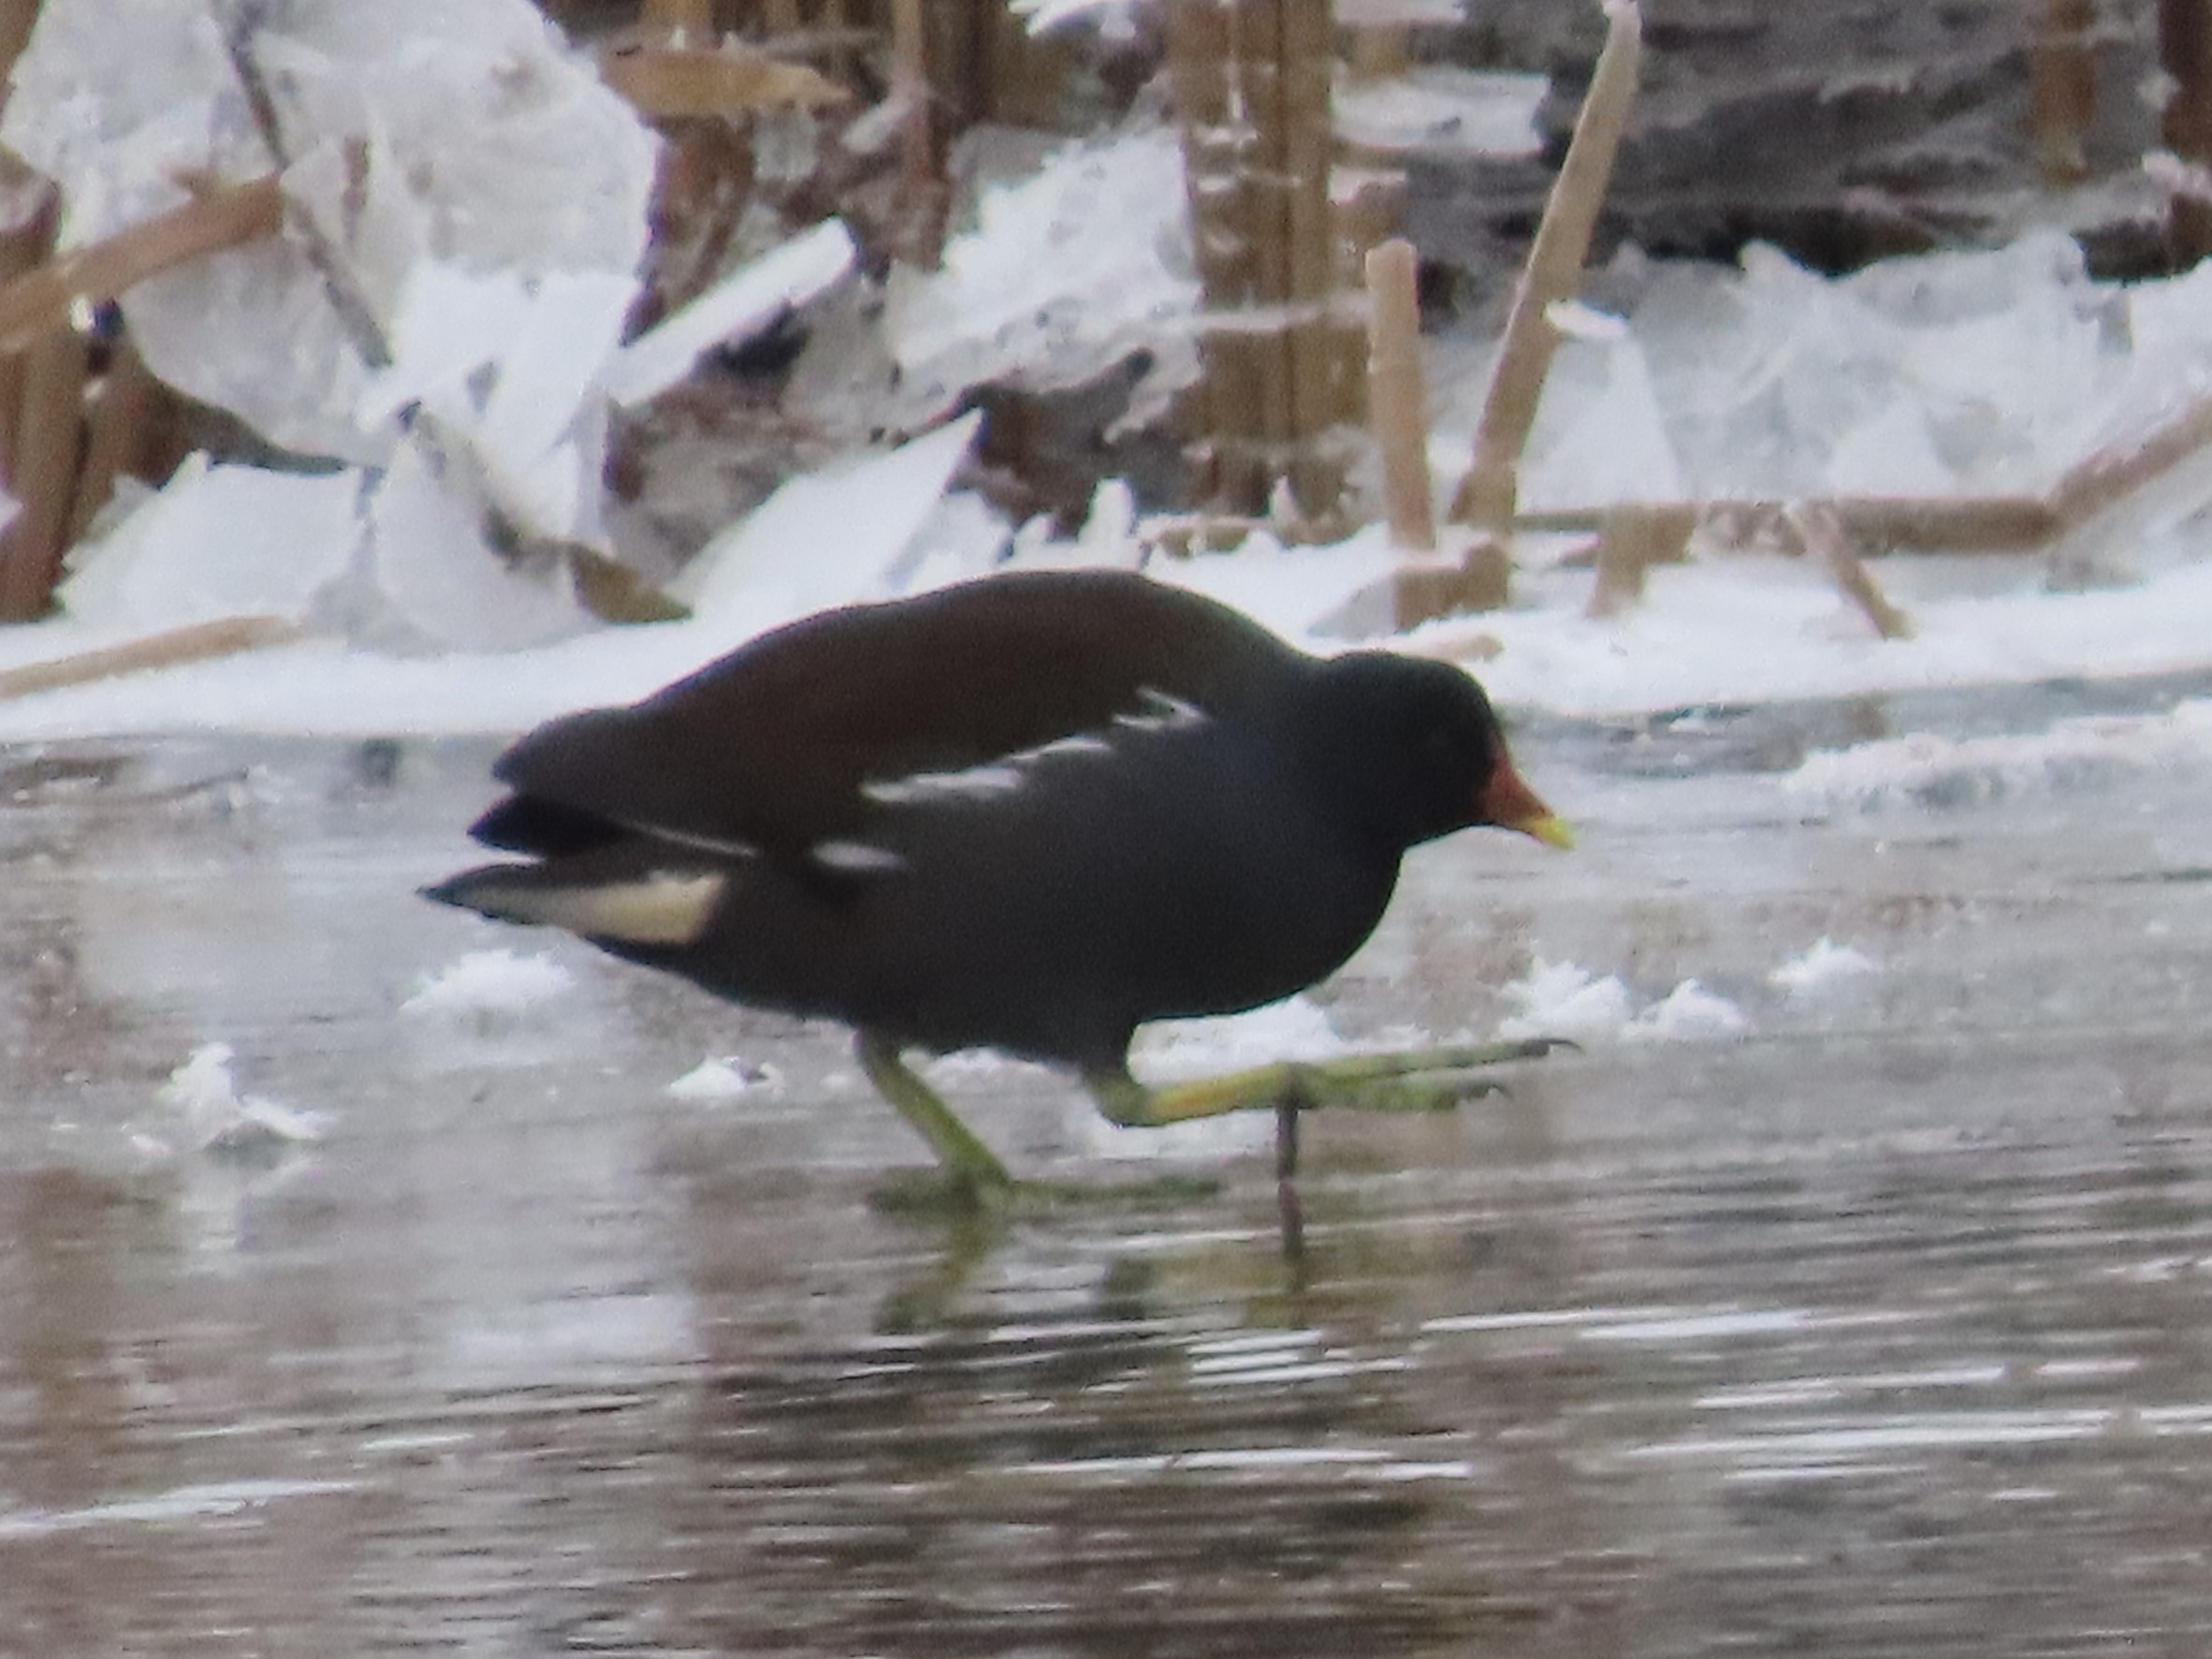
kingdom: Animalia
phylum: Chordata
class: Aves
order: Gruiformes
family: Rallidae
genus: Gallinula
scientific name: Gallinula chloropus
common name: Grønbenet rørhøne
